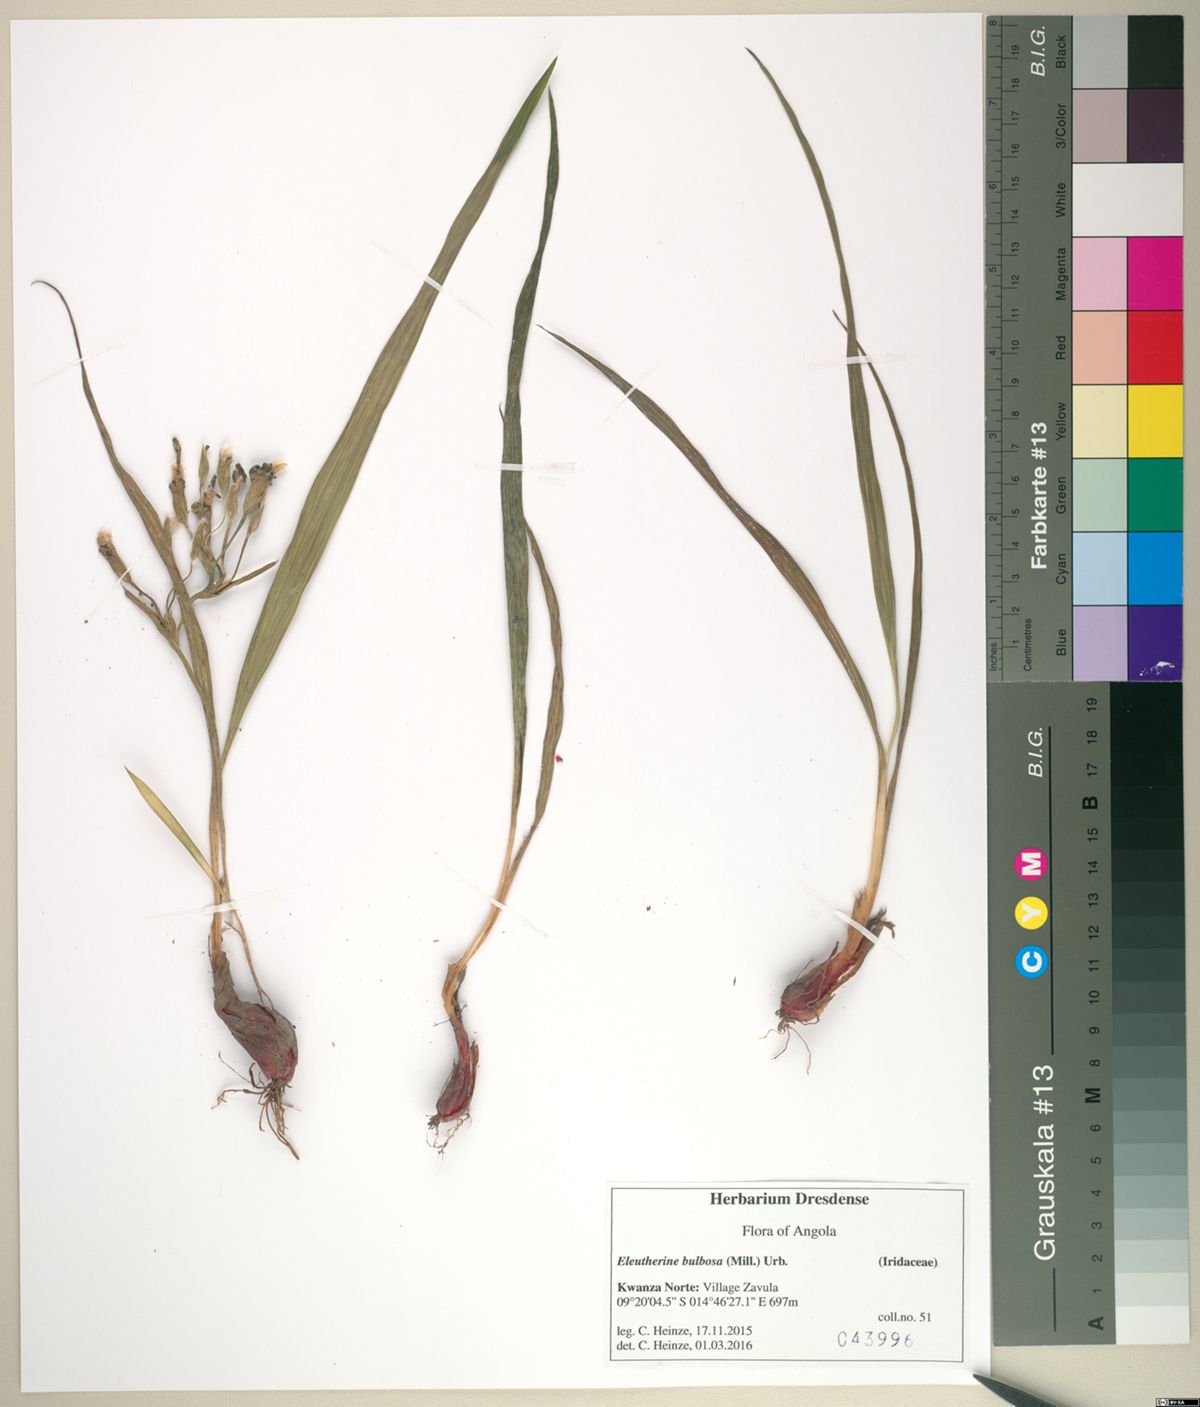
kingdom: Plantae
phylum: Tracheophyta
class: Liliopsida
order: Asparagales
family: Iridaceae
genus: Eleutherine
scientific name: Eleutherine bulbosa
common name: Lagrimas de la virgen
